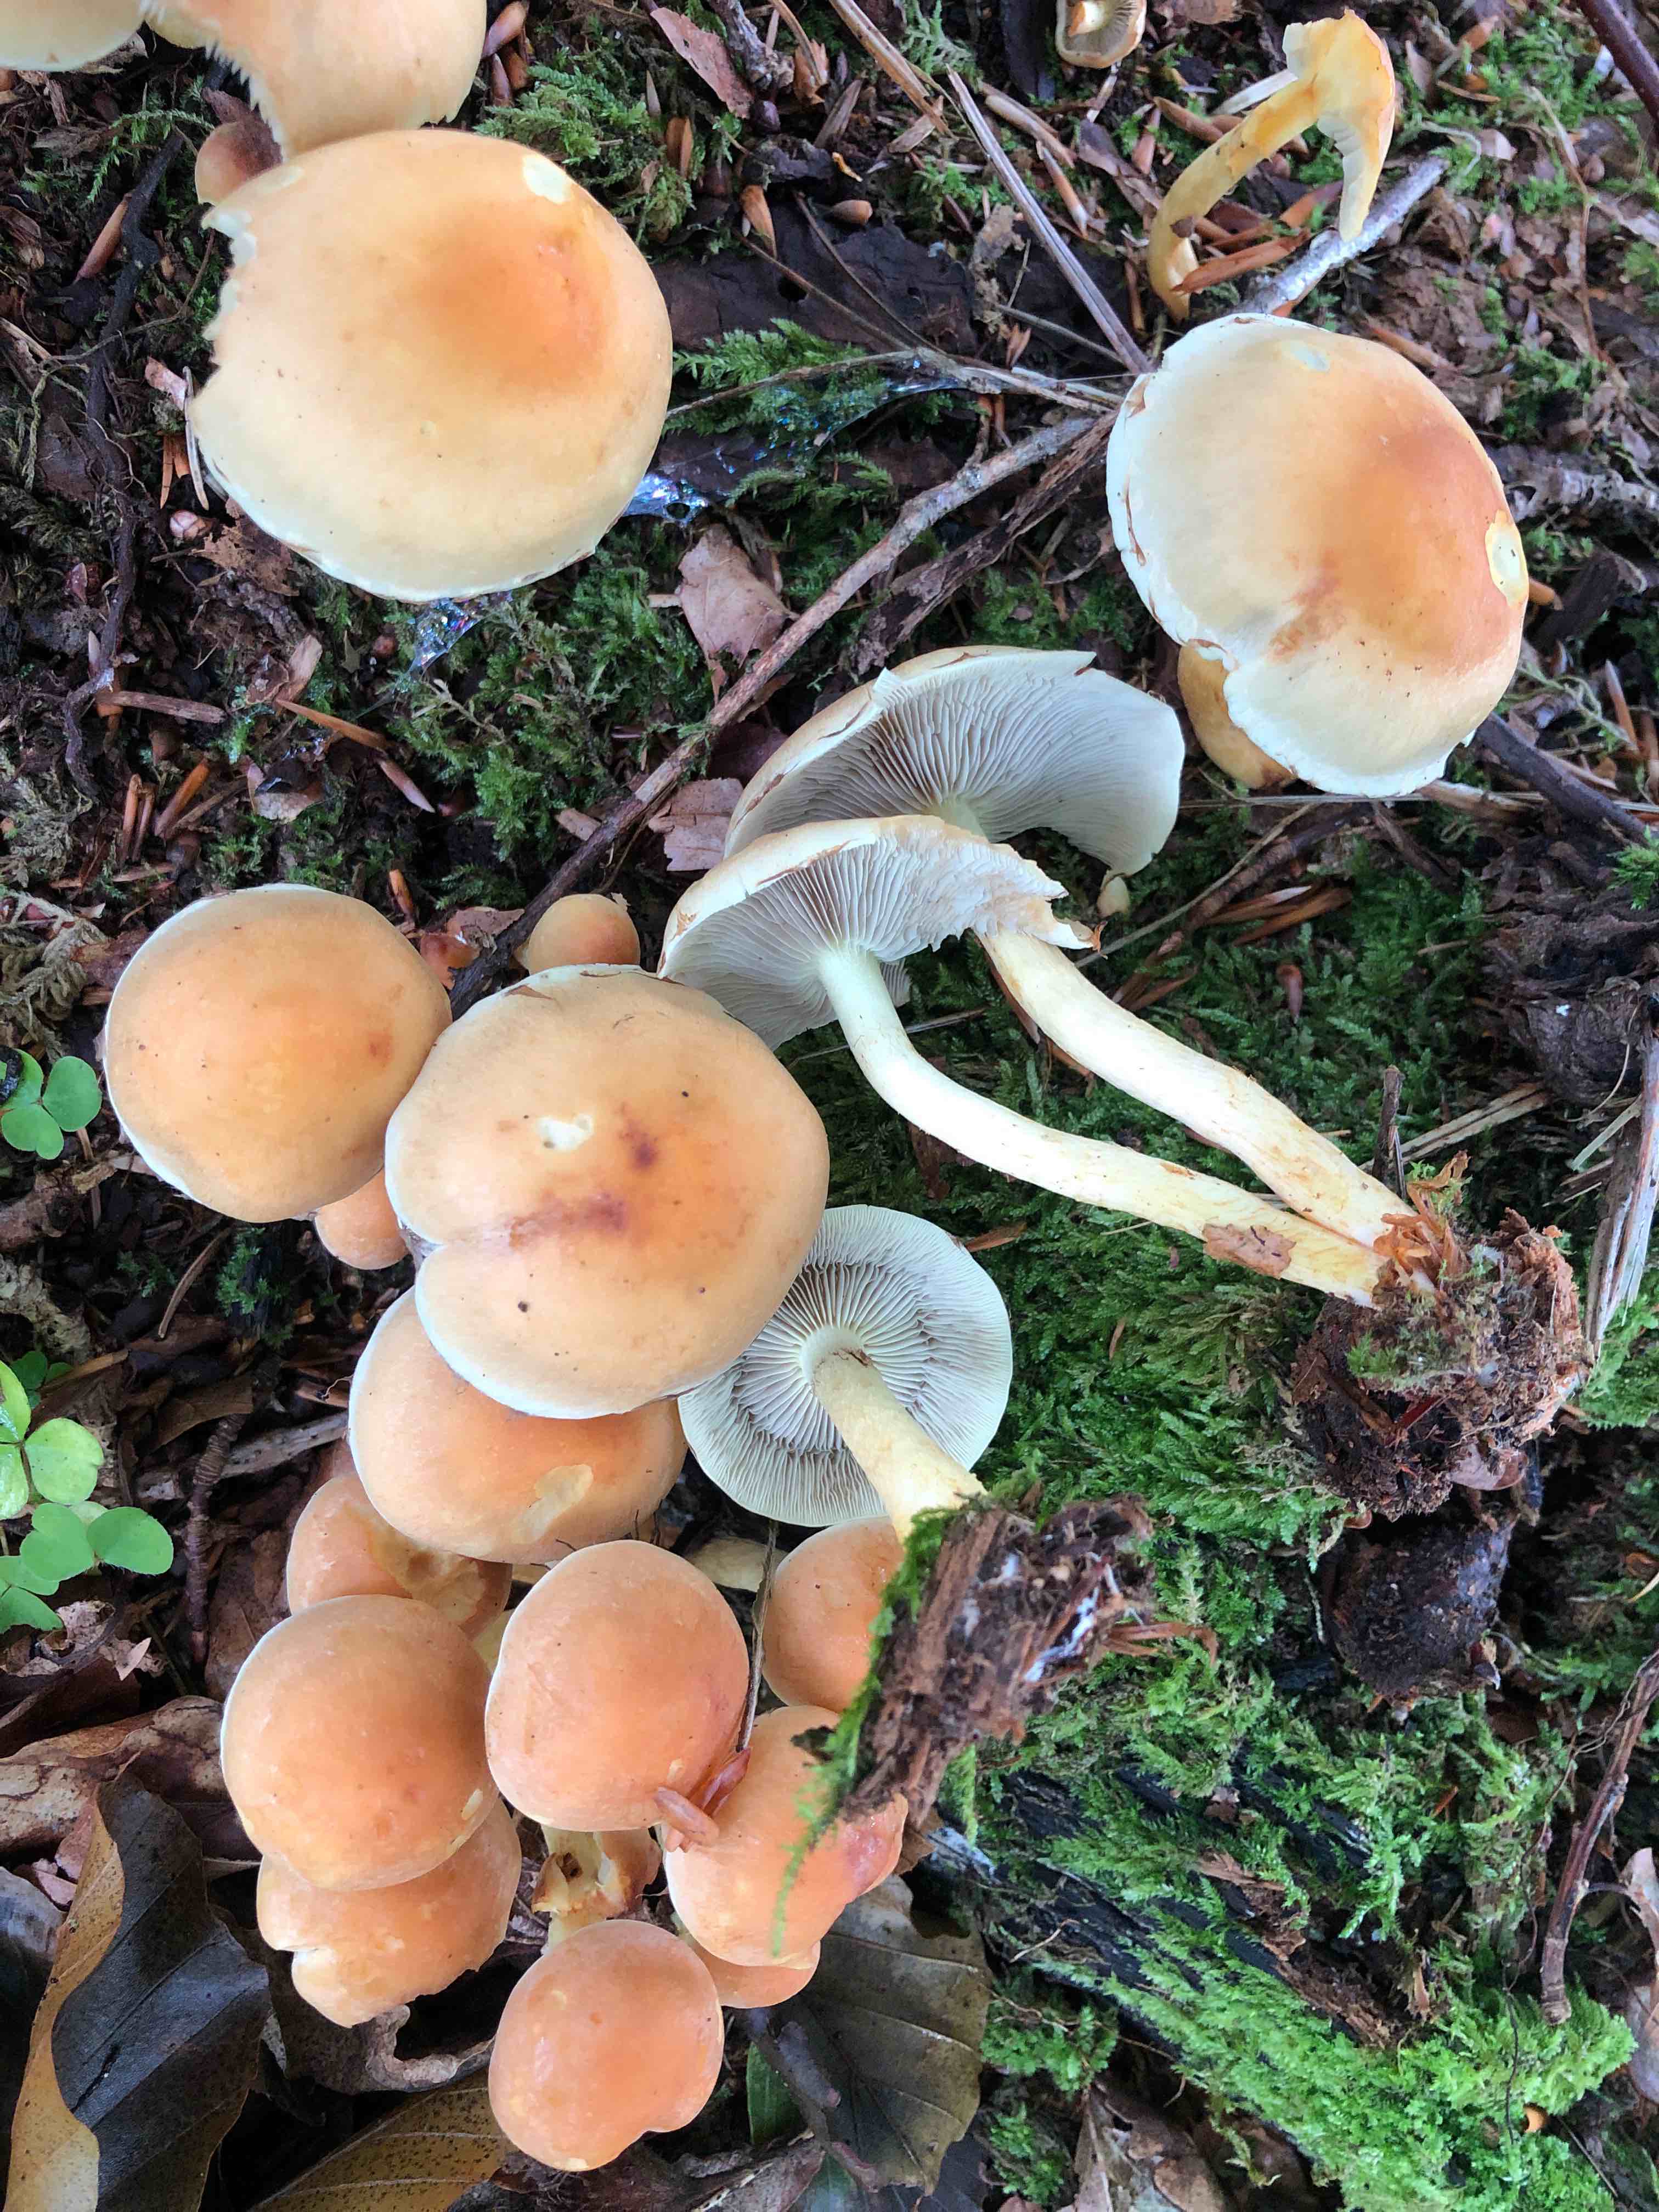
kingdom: Fungi
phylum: Basidiomycota
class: Agaricomycetes
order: Agaricales
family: Strophariaceae
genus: Hypholoma
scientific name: Hypholoma fasciculare
